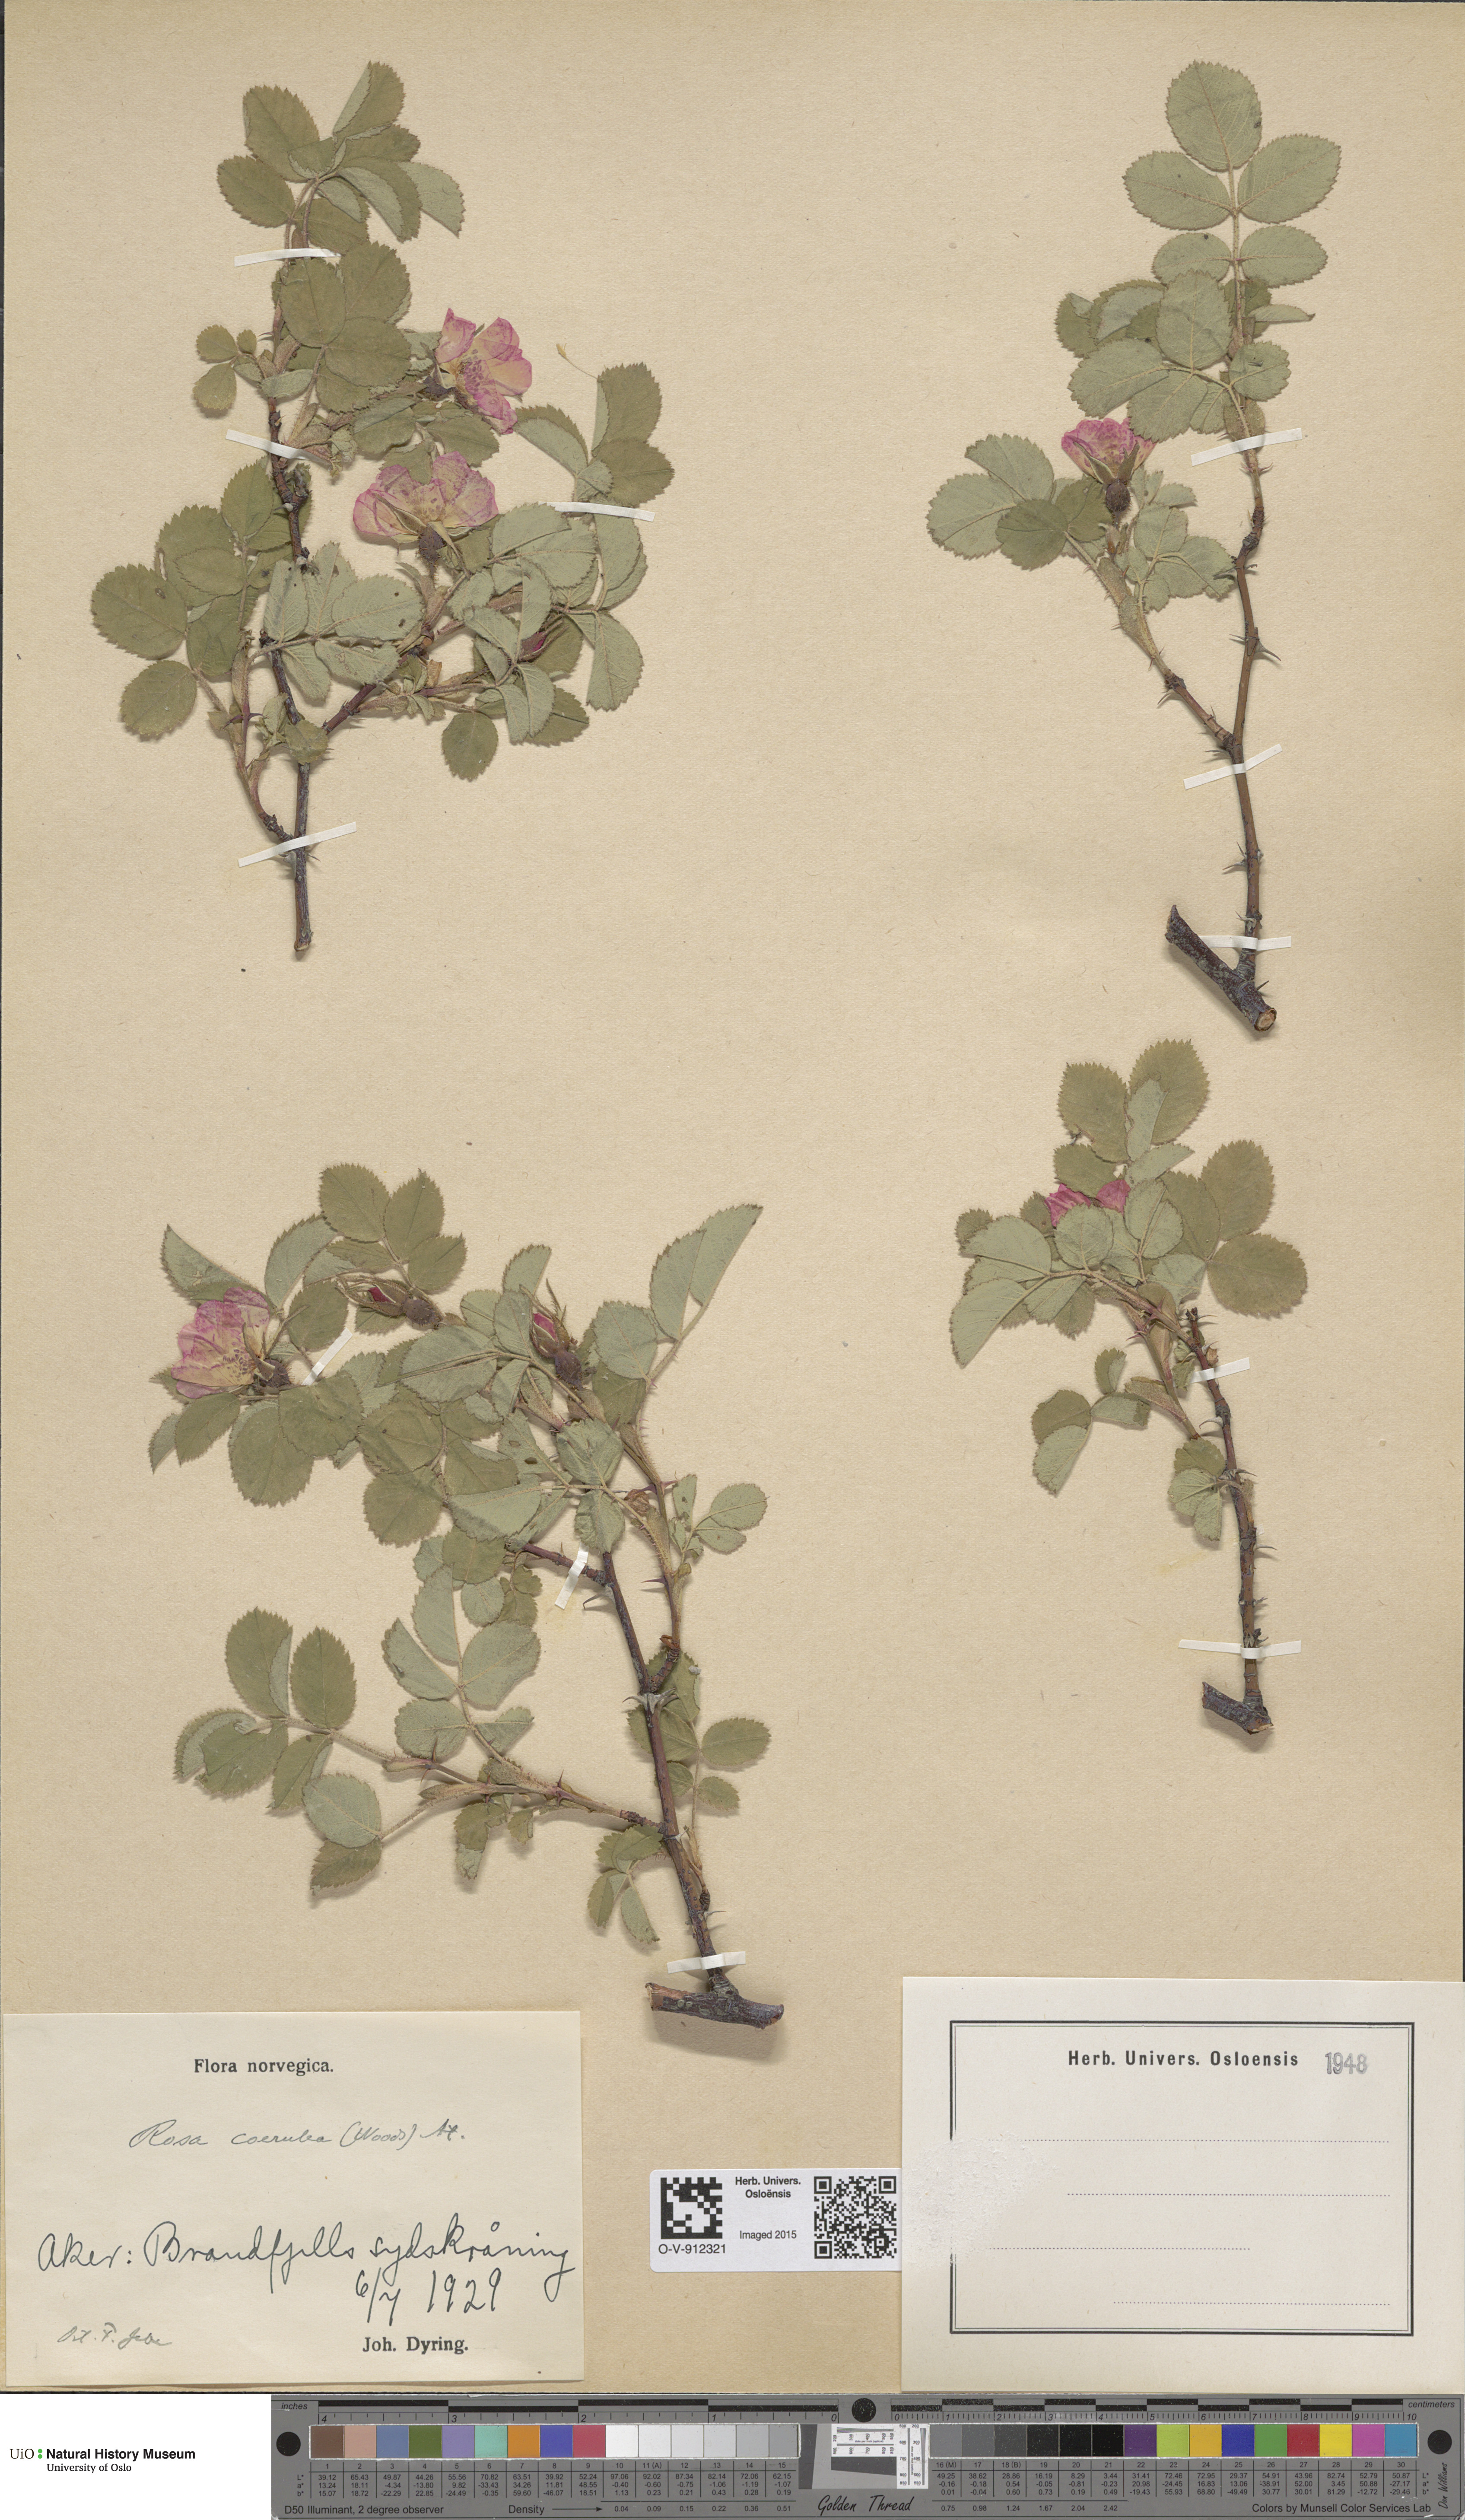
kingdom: Plantae
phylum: Tracheophyta
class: Magnoliopsida
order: Rosales
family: Rosaceae
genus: Rosa
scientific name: Rosa mollis
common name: Rose
